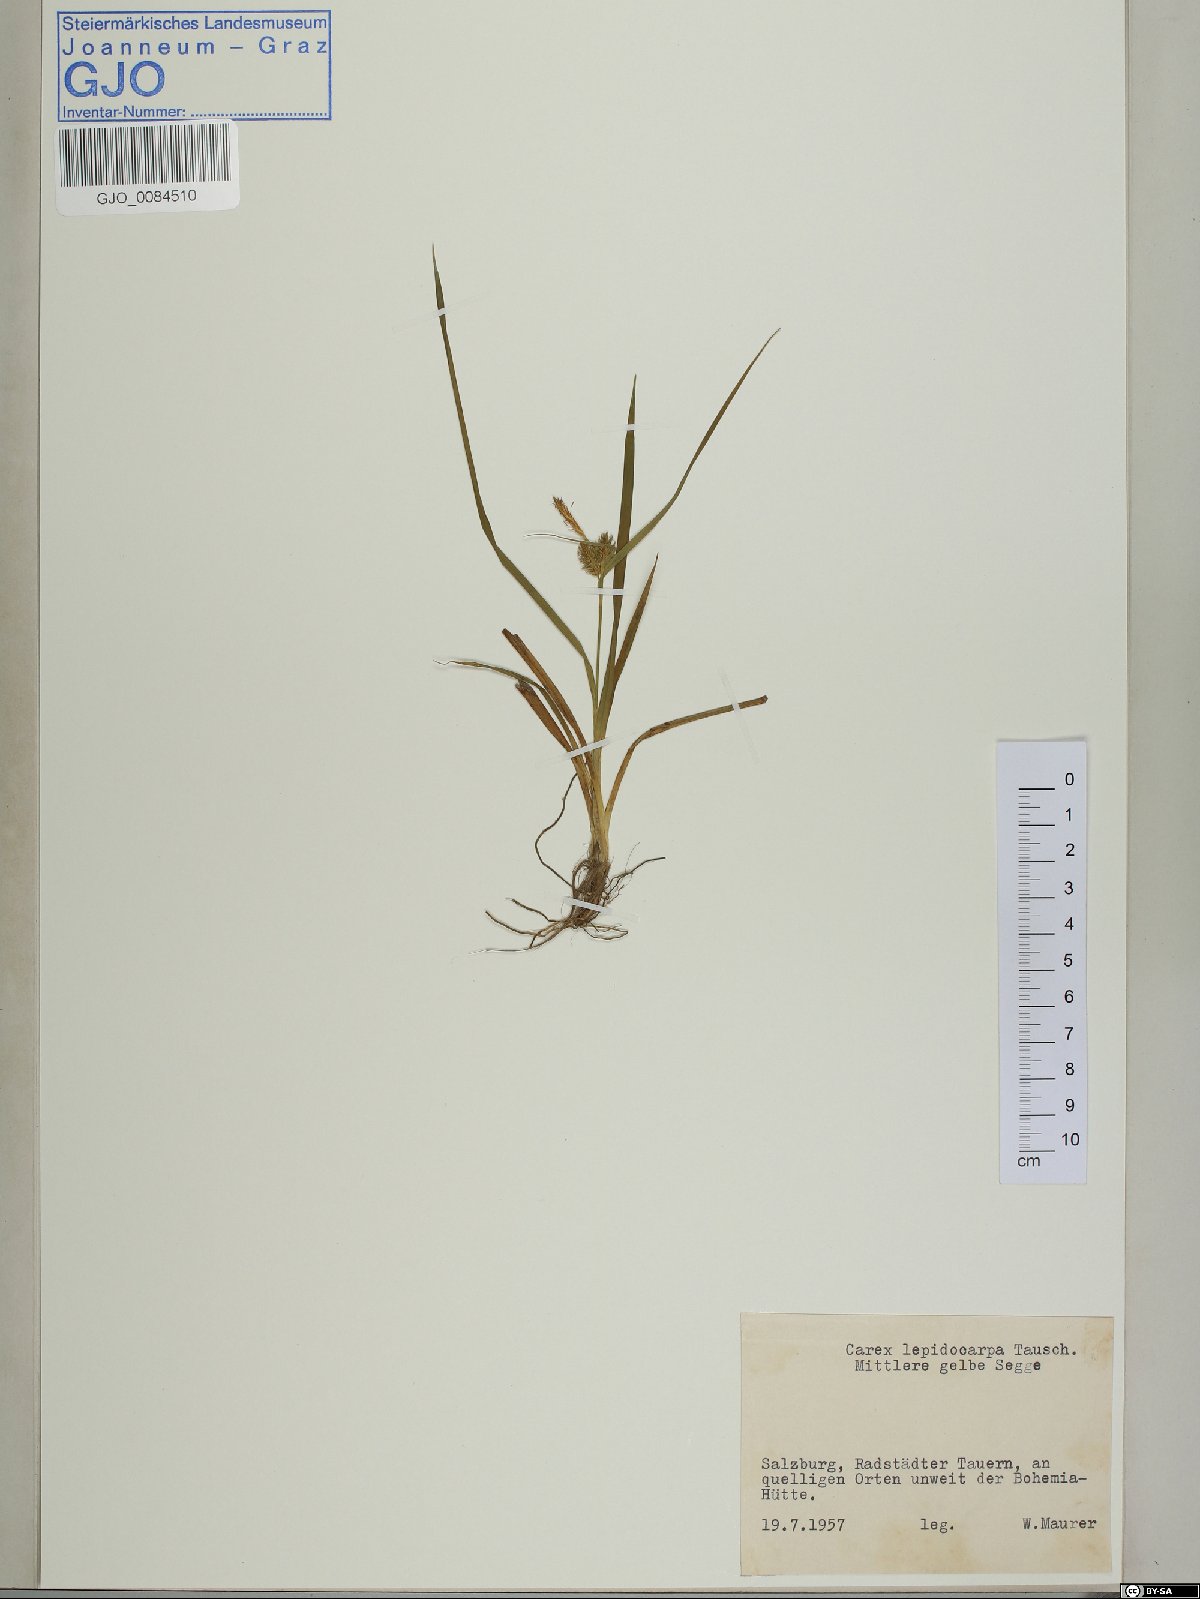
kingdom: Plantae
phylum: Tracheophyta
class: Liliopsida
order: Poales
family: Cyperaceae
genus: Carex
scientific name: Carex lepidocarpa
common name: Long-stalked yellow-sedge
